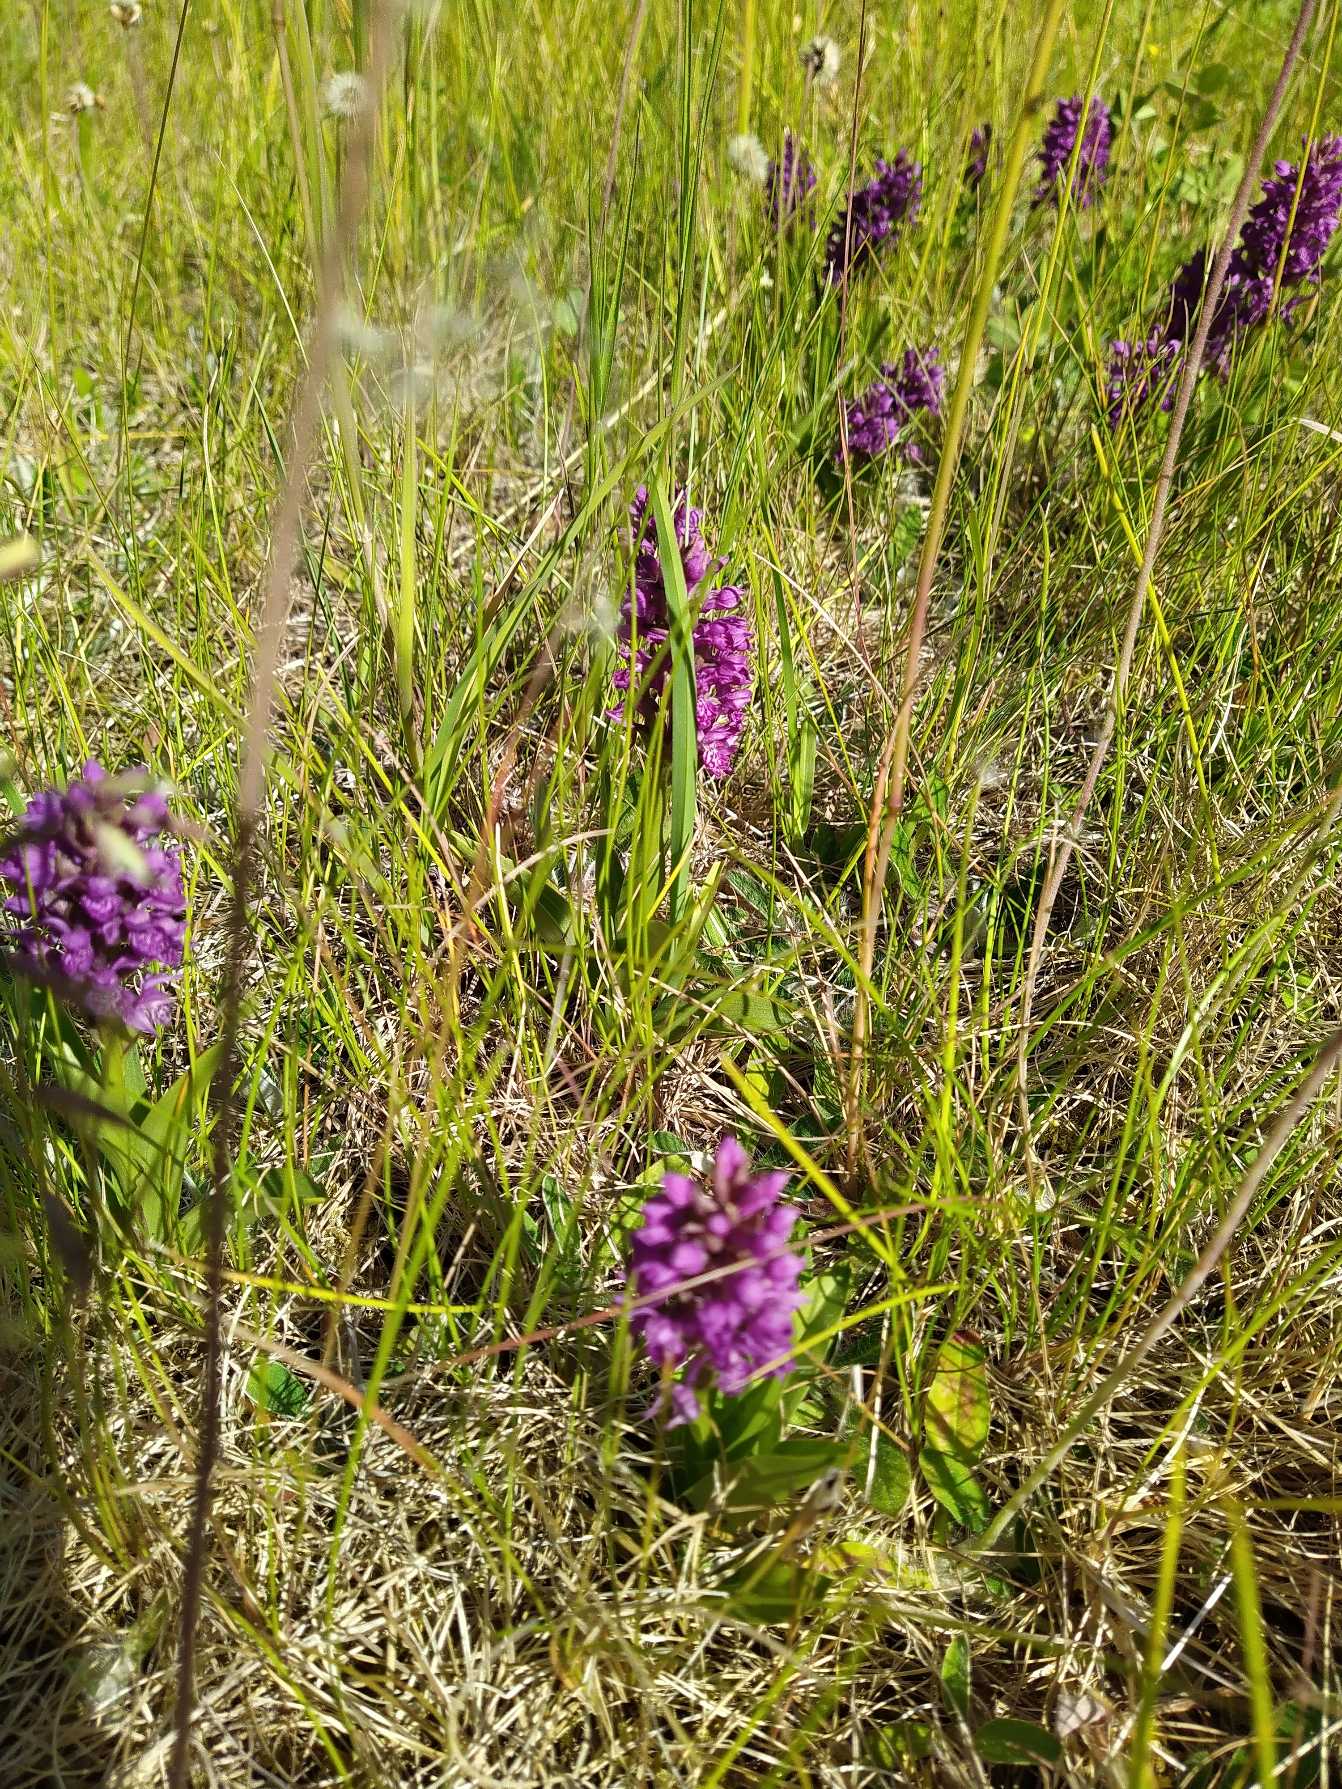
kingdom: Plantae
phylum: Tracheophyta
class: Liliopsida
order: Asparagales
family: Orchidaceae
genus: Dactylorhiza
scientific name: Dactylorhiza majalis
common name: Purpur-gøgeurt
